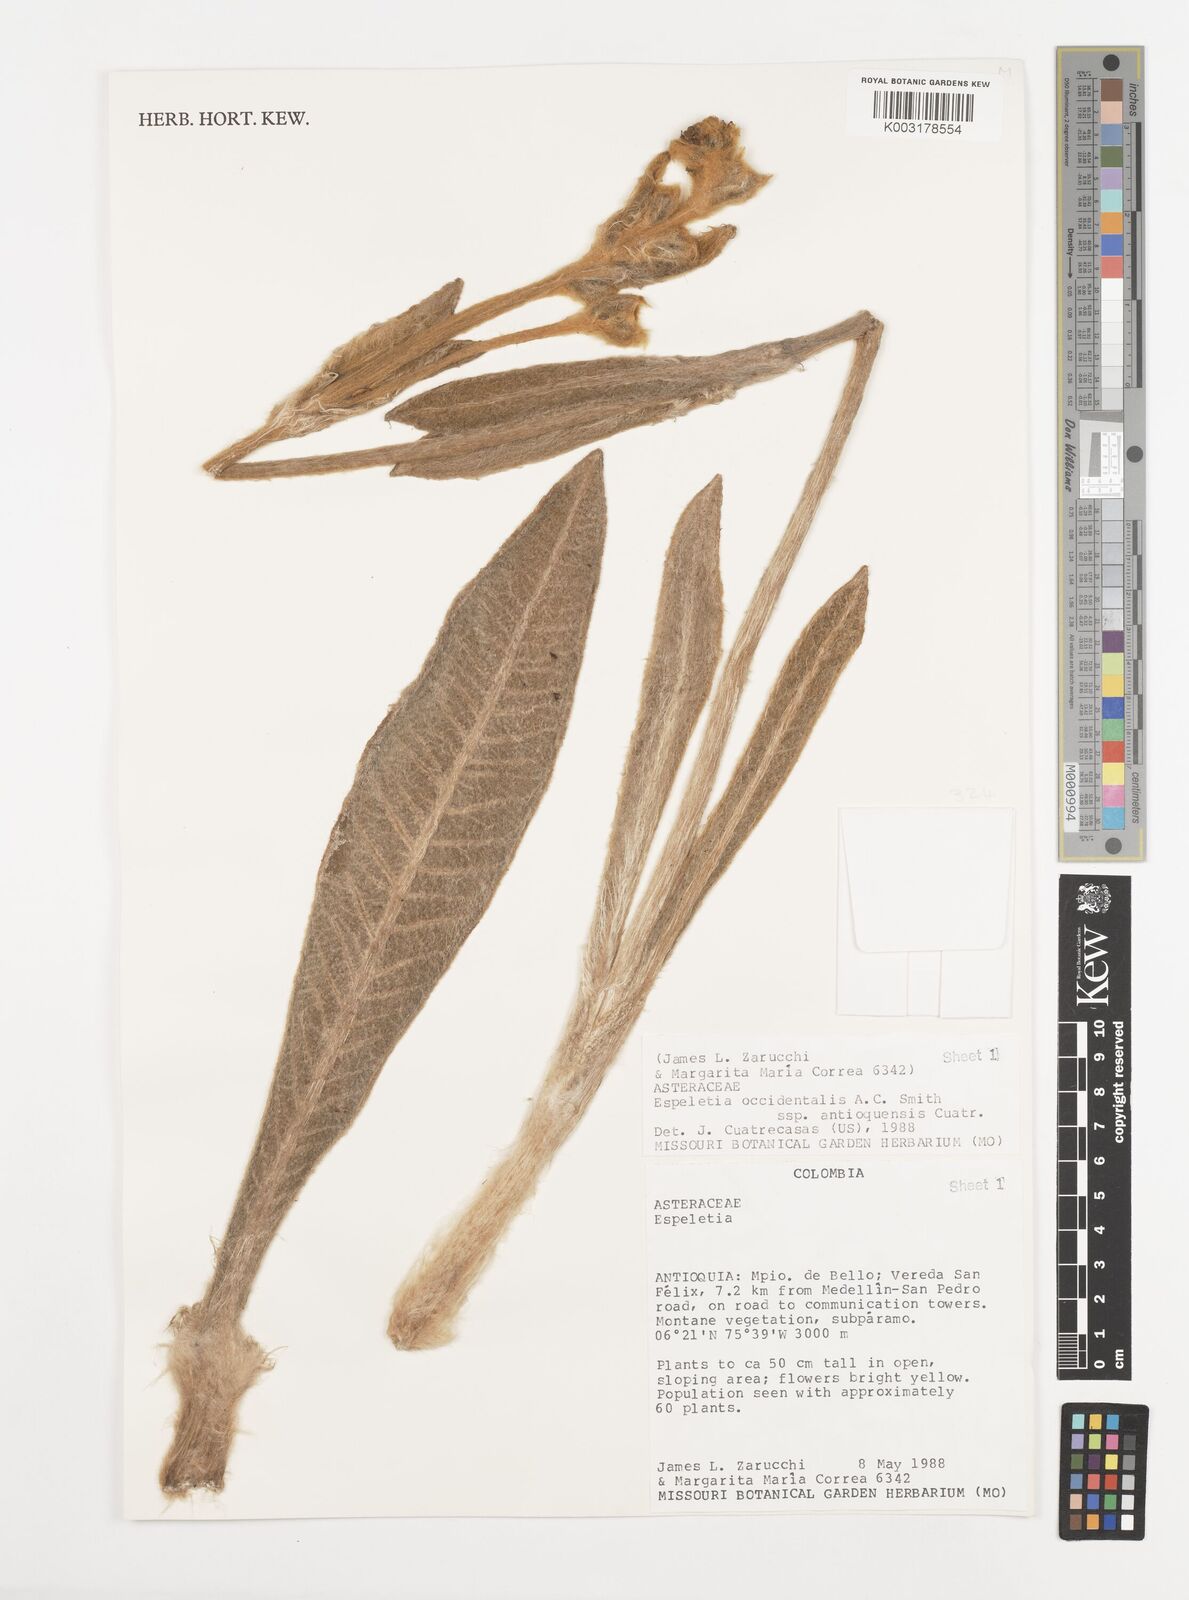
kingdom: Plantae
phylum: Tracheophyta
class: Magnoliopsida
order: Asterales
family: Asteraceae
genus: Espeletia
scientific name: Espeletia occidentalis
